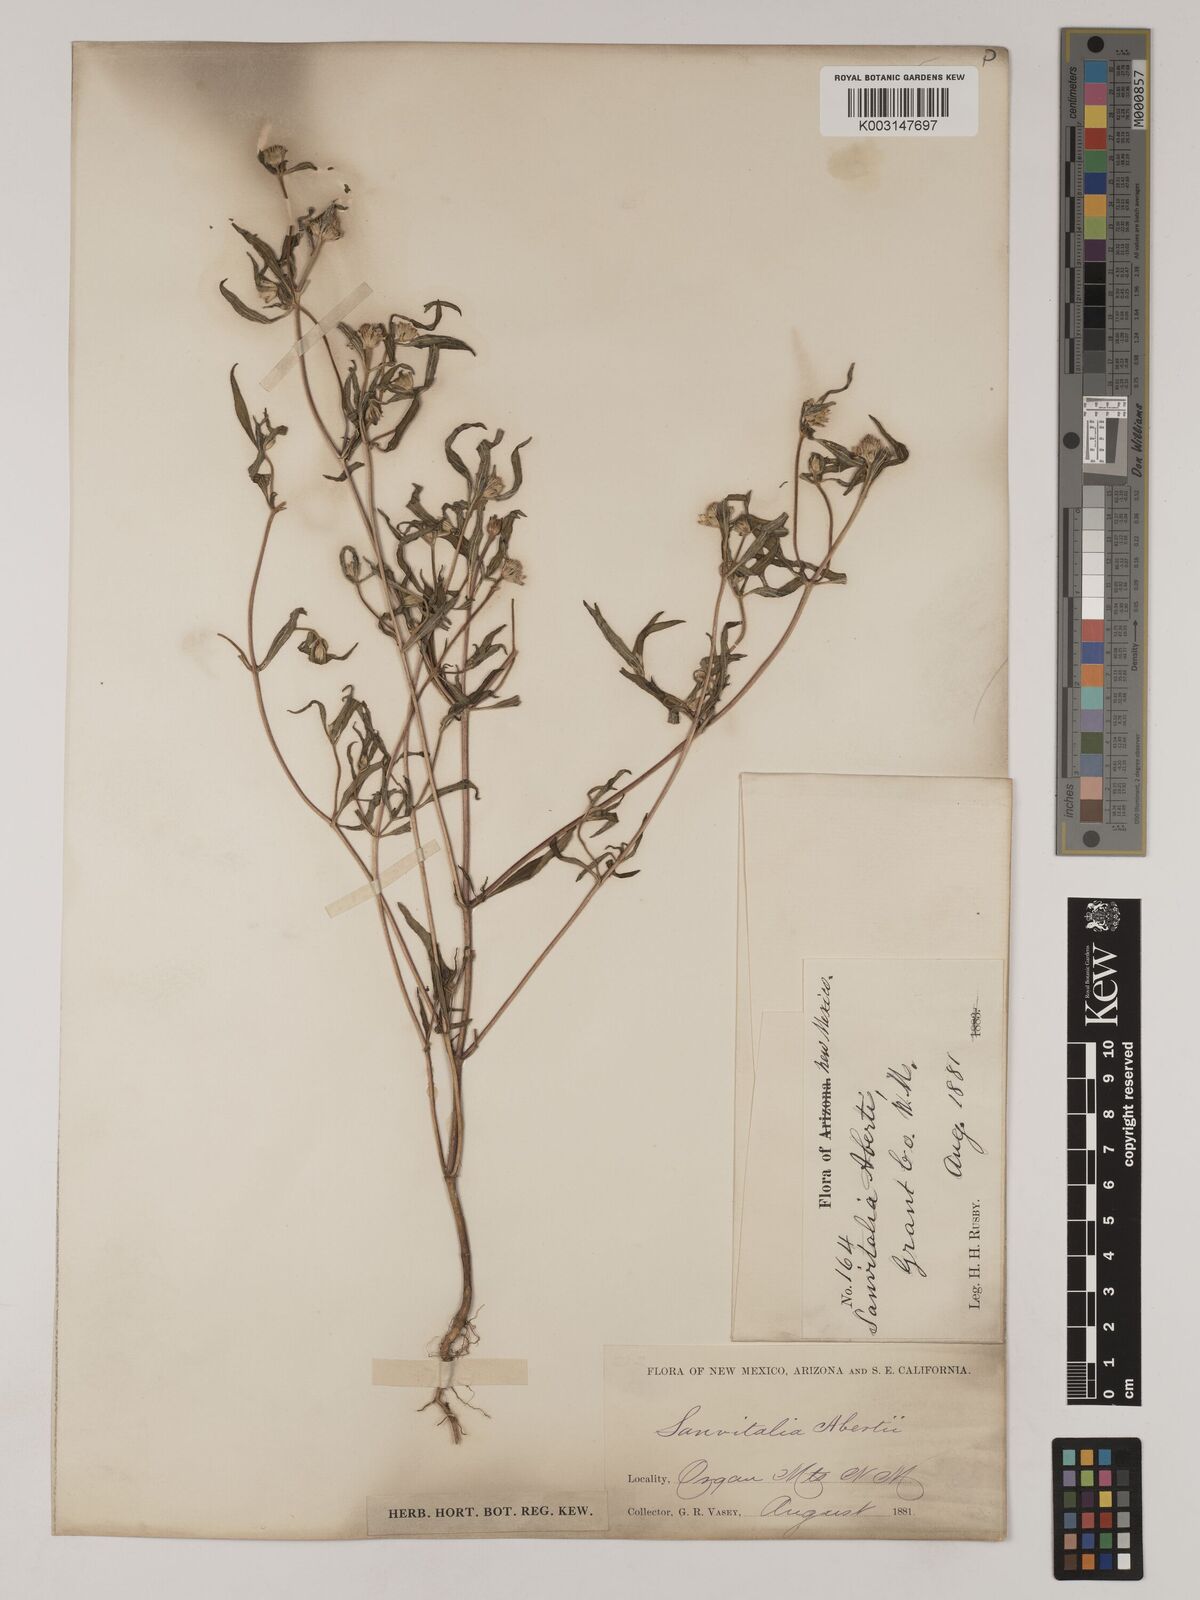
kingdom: Plantae
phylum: Tracheophyta
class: Magnoliopsida
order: Asterales
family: Asteraceae
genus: Sanvitalia
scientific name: Sanvitalia abertii
